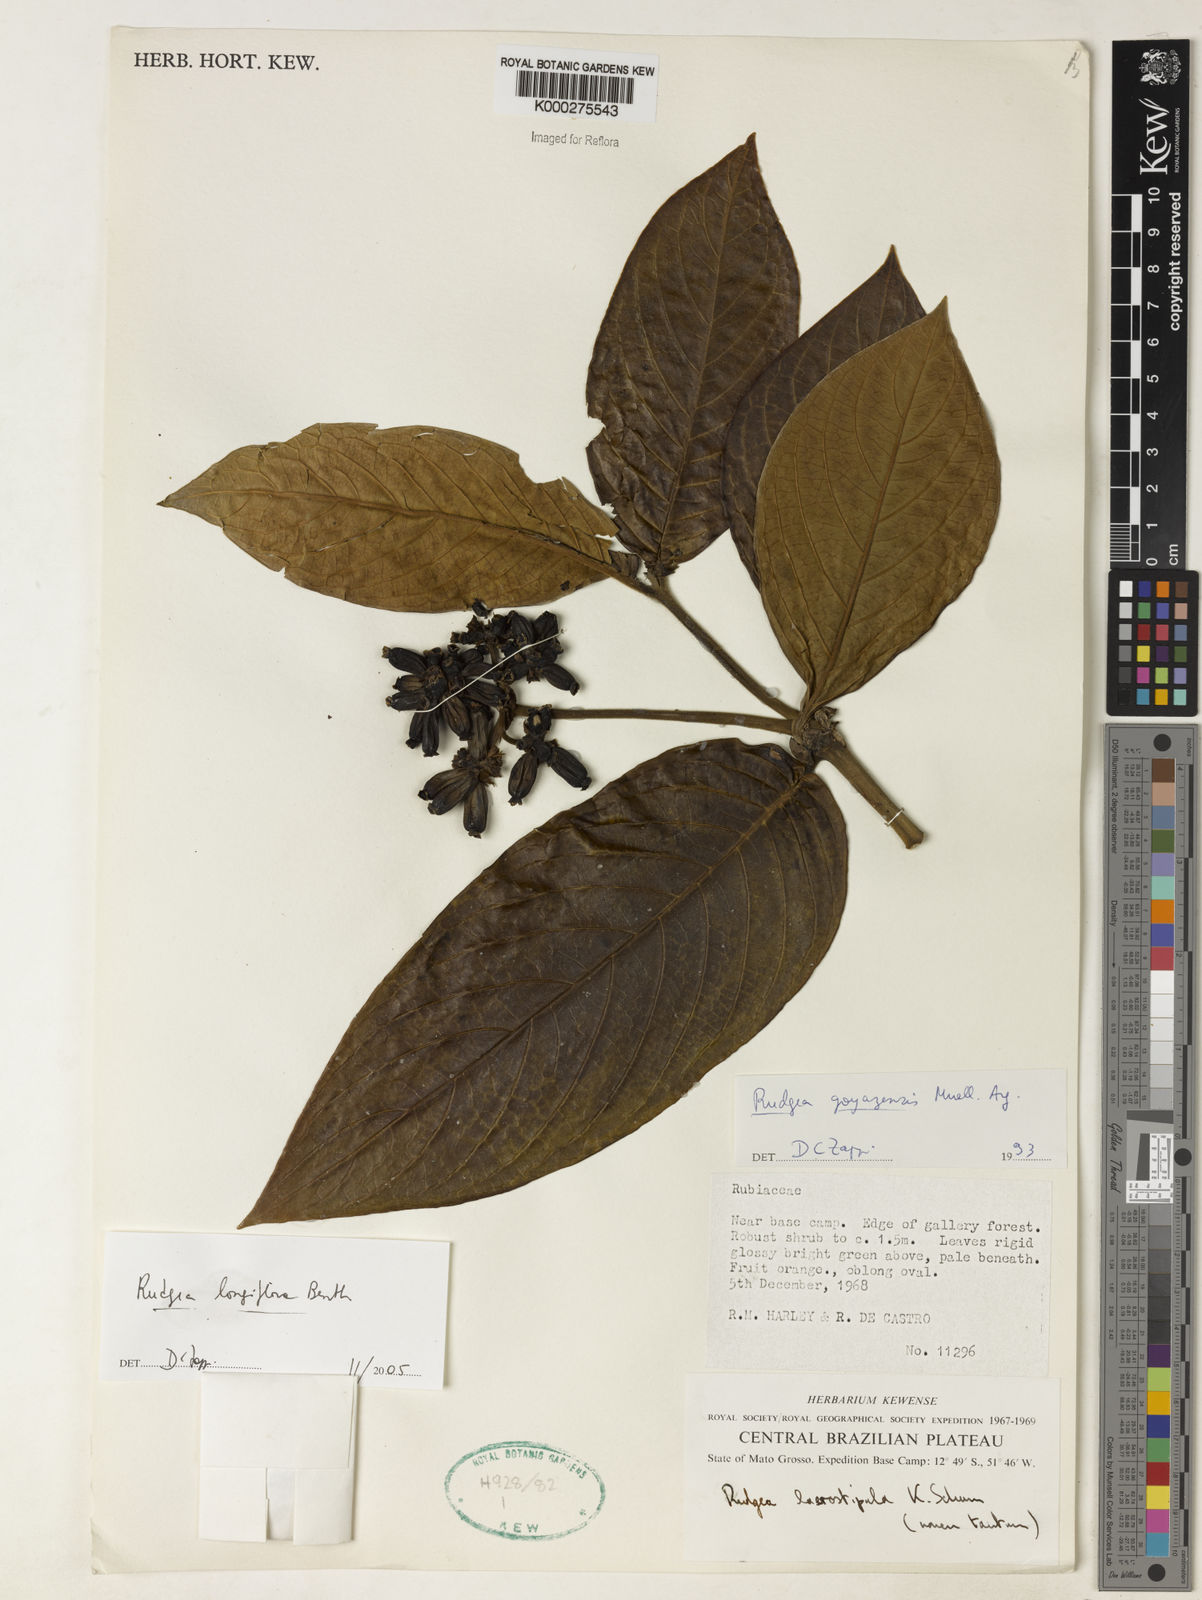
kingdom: Plantae
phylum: Tracheophyta
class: Magnoliopsida
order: Gentianales
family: Rubiaceae
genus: Rudgea
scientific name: Rudgea longiflora
